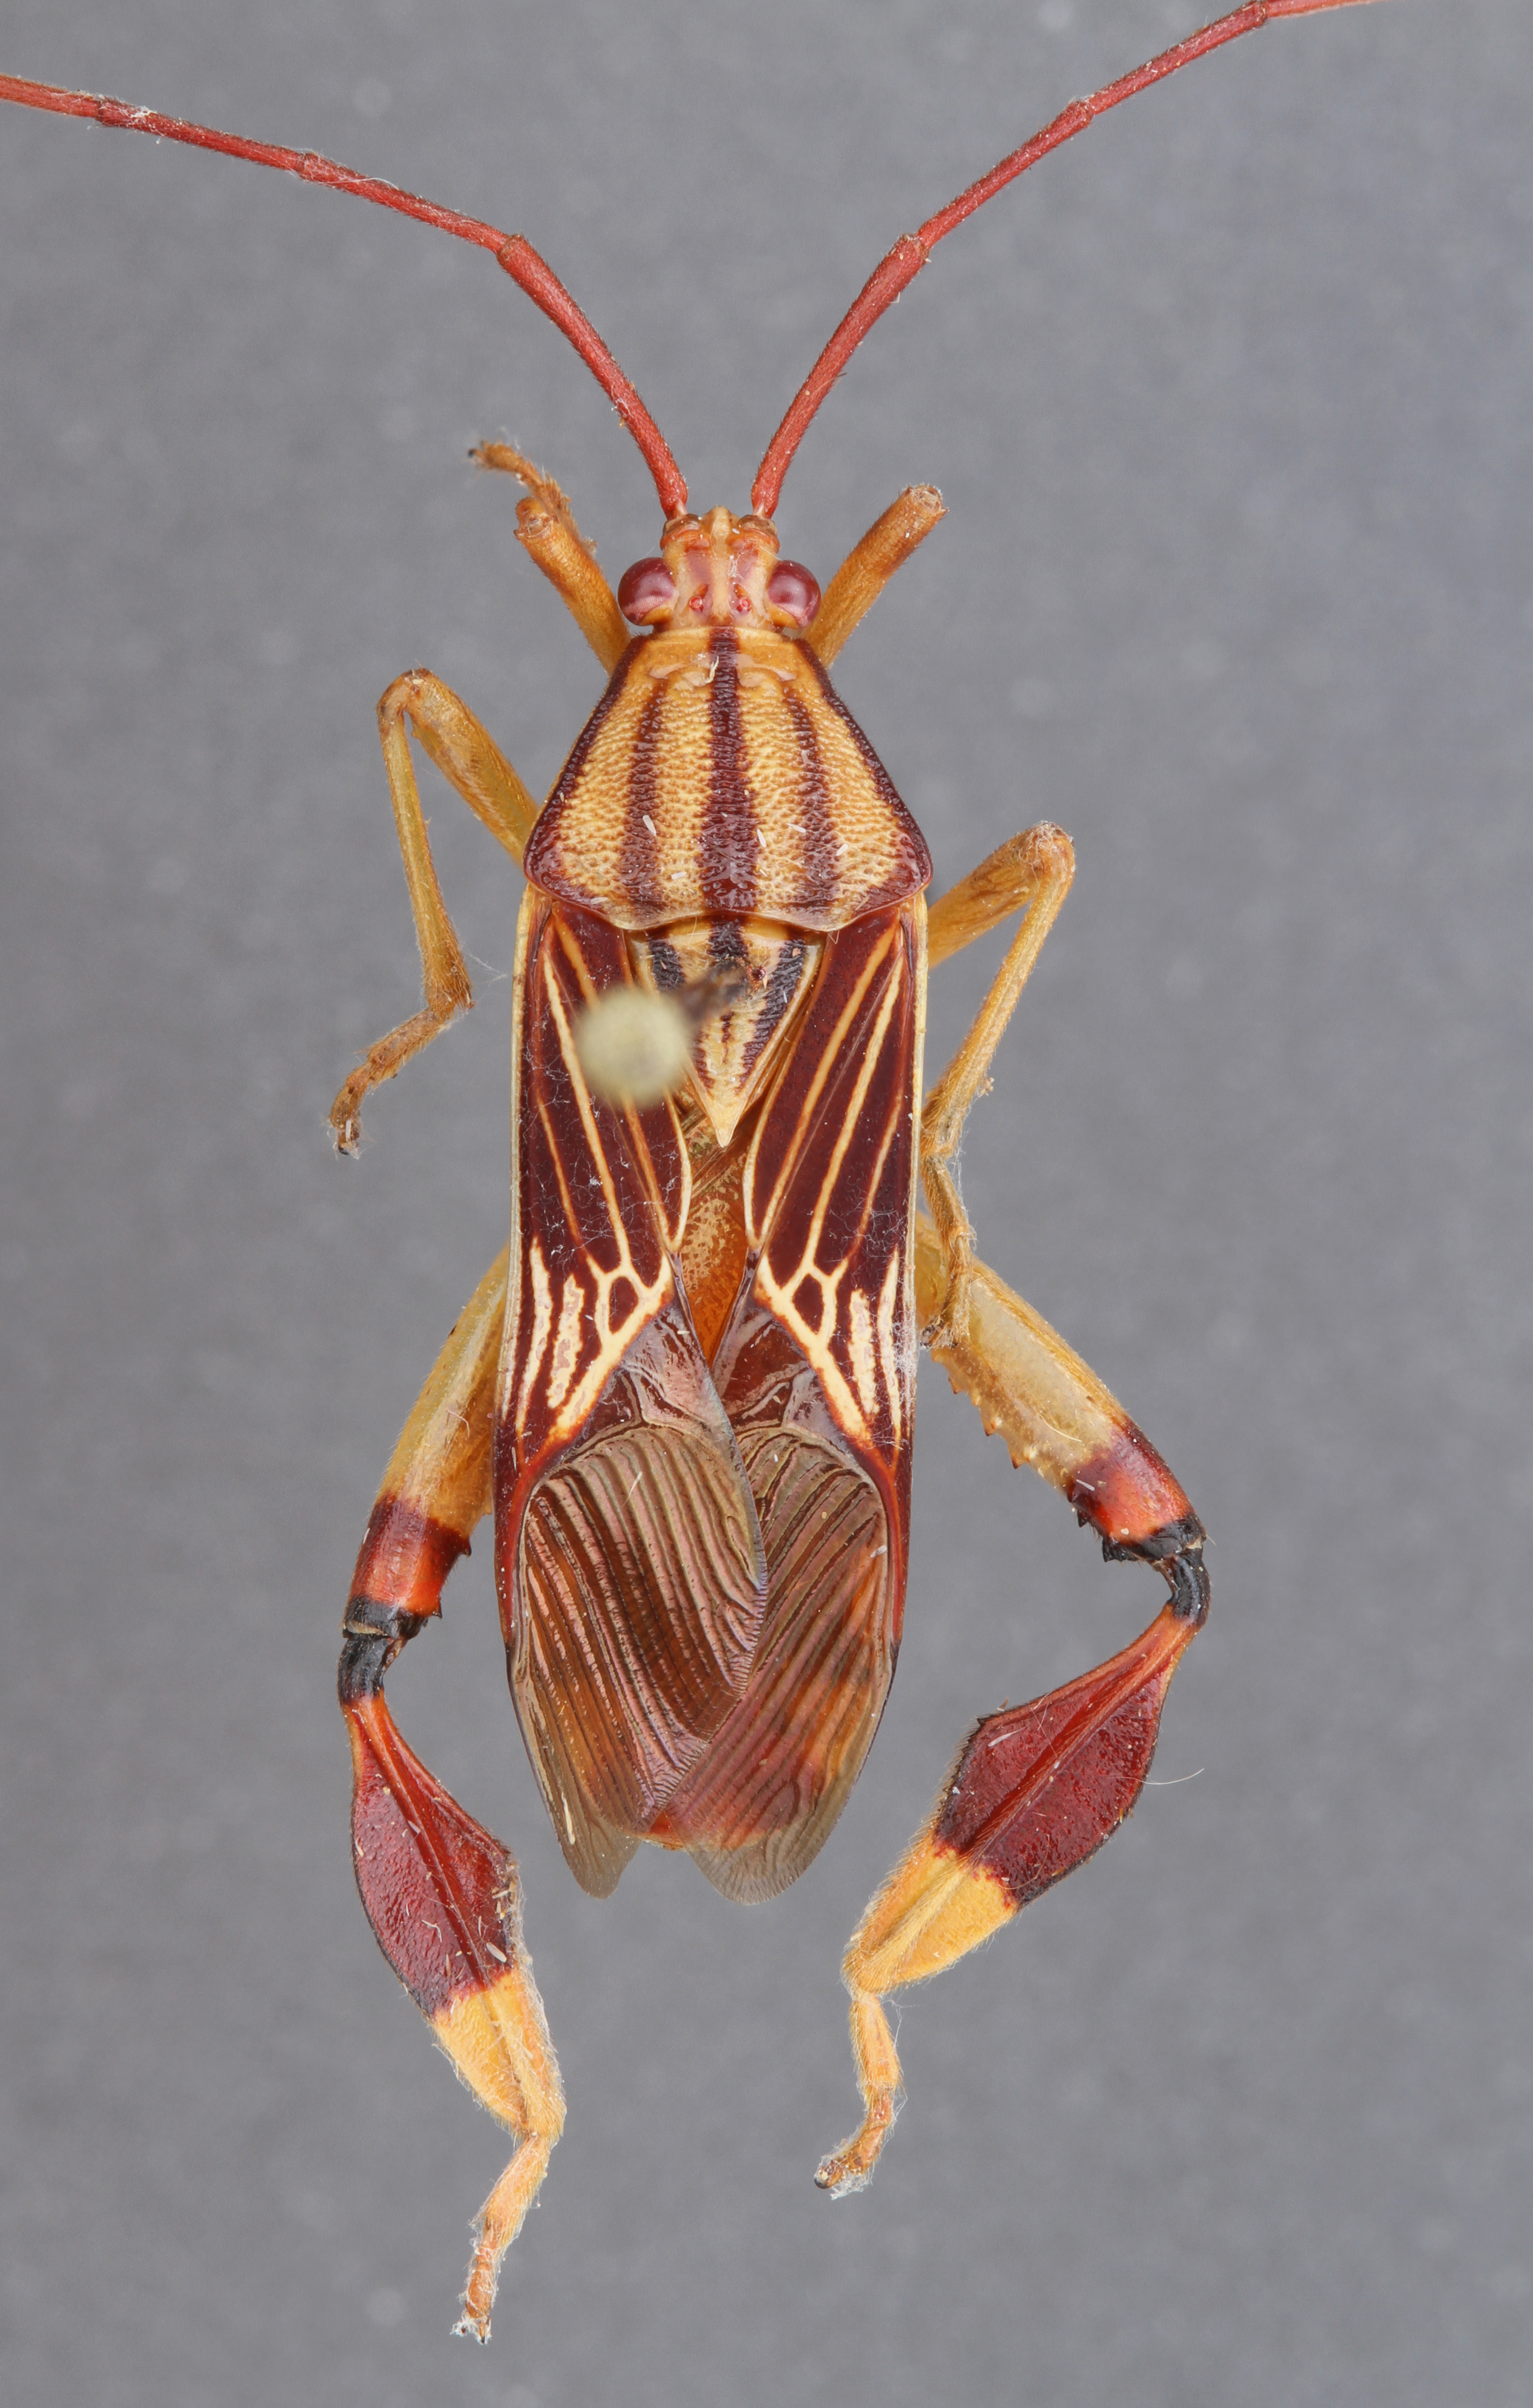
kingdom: Animalia
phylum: Arthropoda
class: Insecta
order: Hemiptera
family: Coreidae
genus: Melucha
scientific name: Melucha quinquelineata
